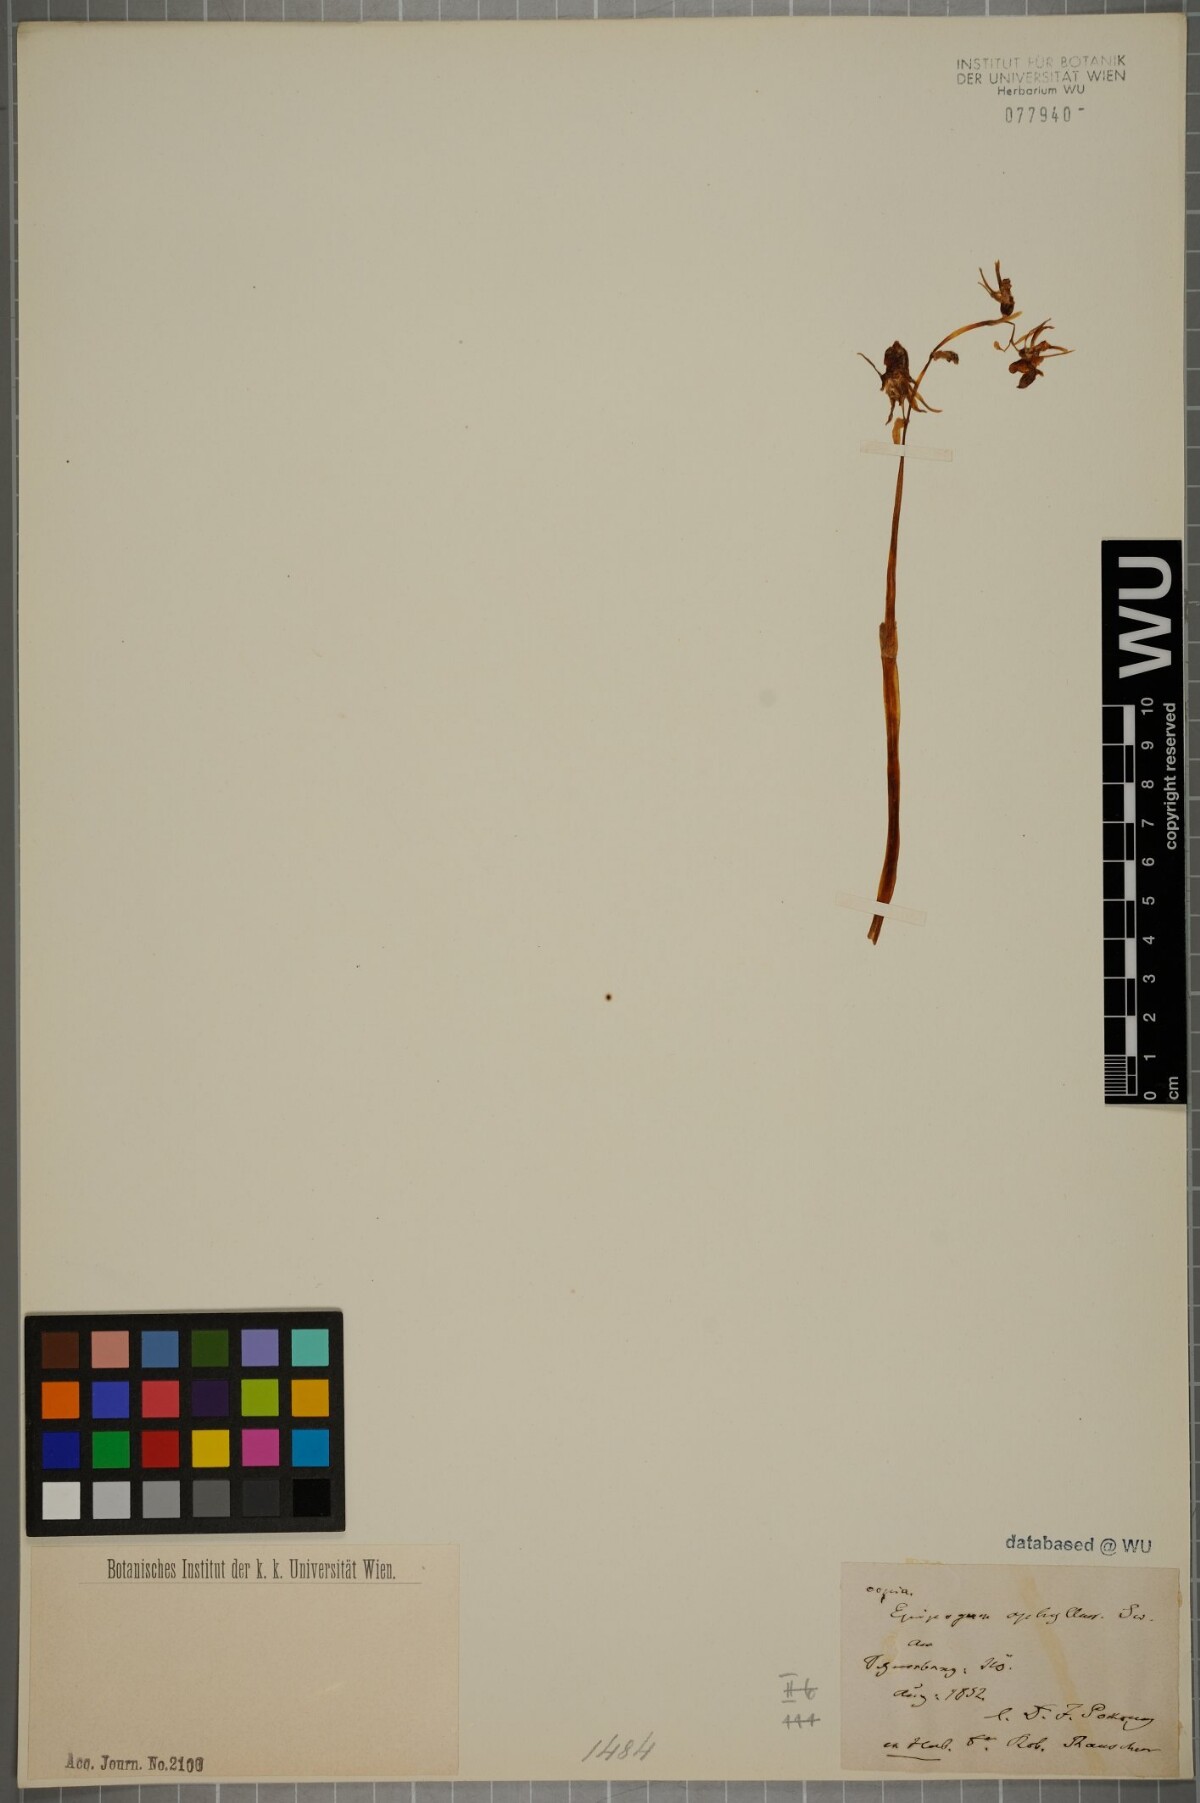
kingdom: Plantae
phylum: Tracheophyta
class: Liliopsida
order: Asparagales
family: Orchidaceae
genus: Epipogium
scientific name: Epipogium aphyllum
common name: Ghost orchid
